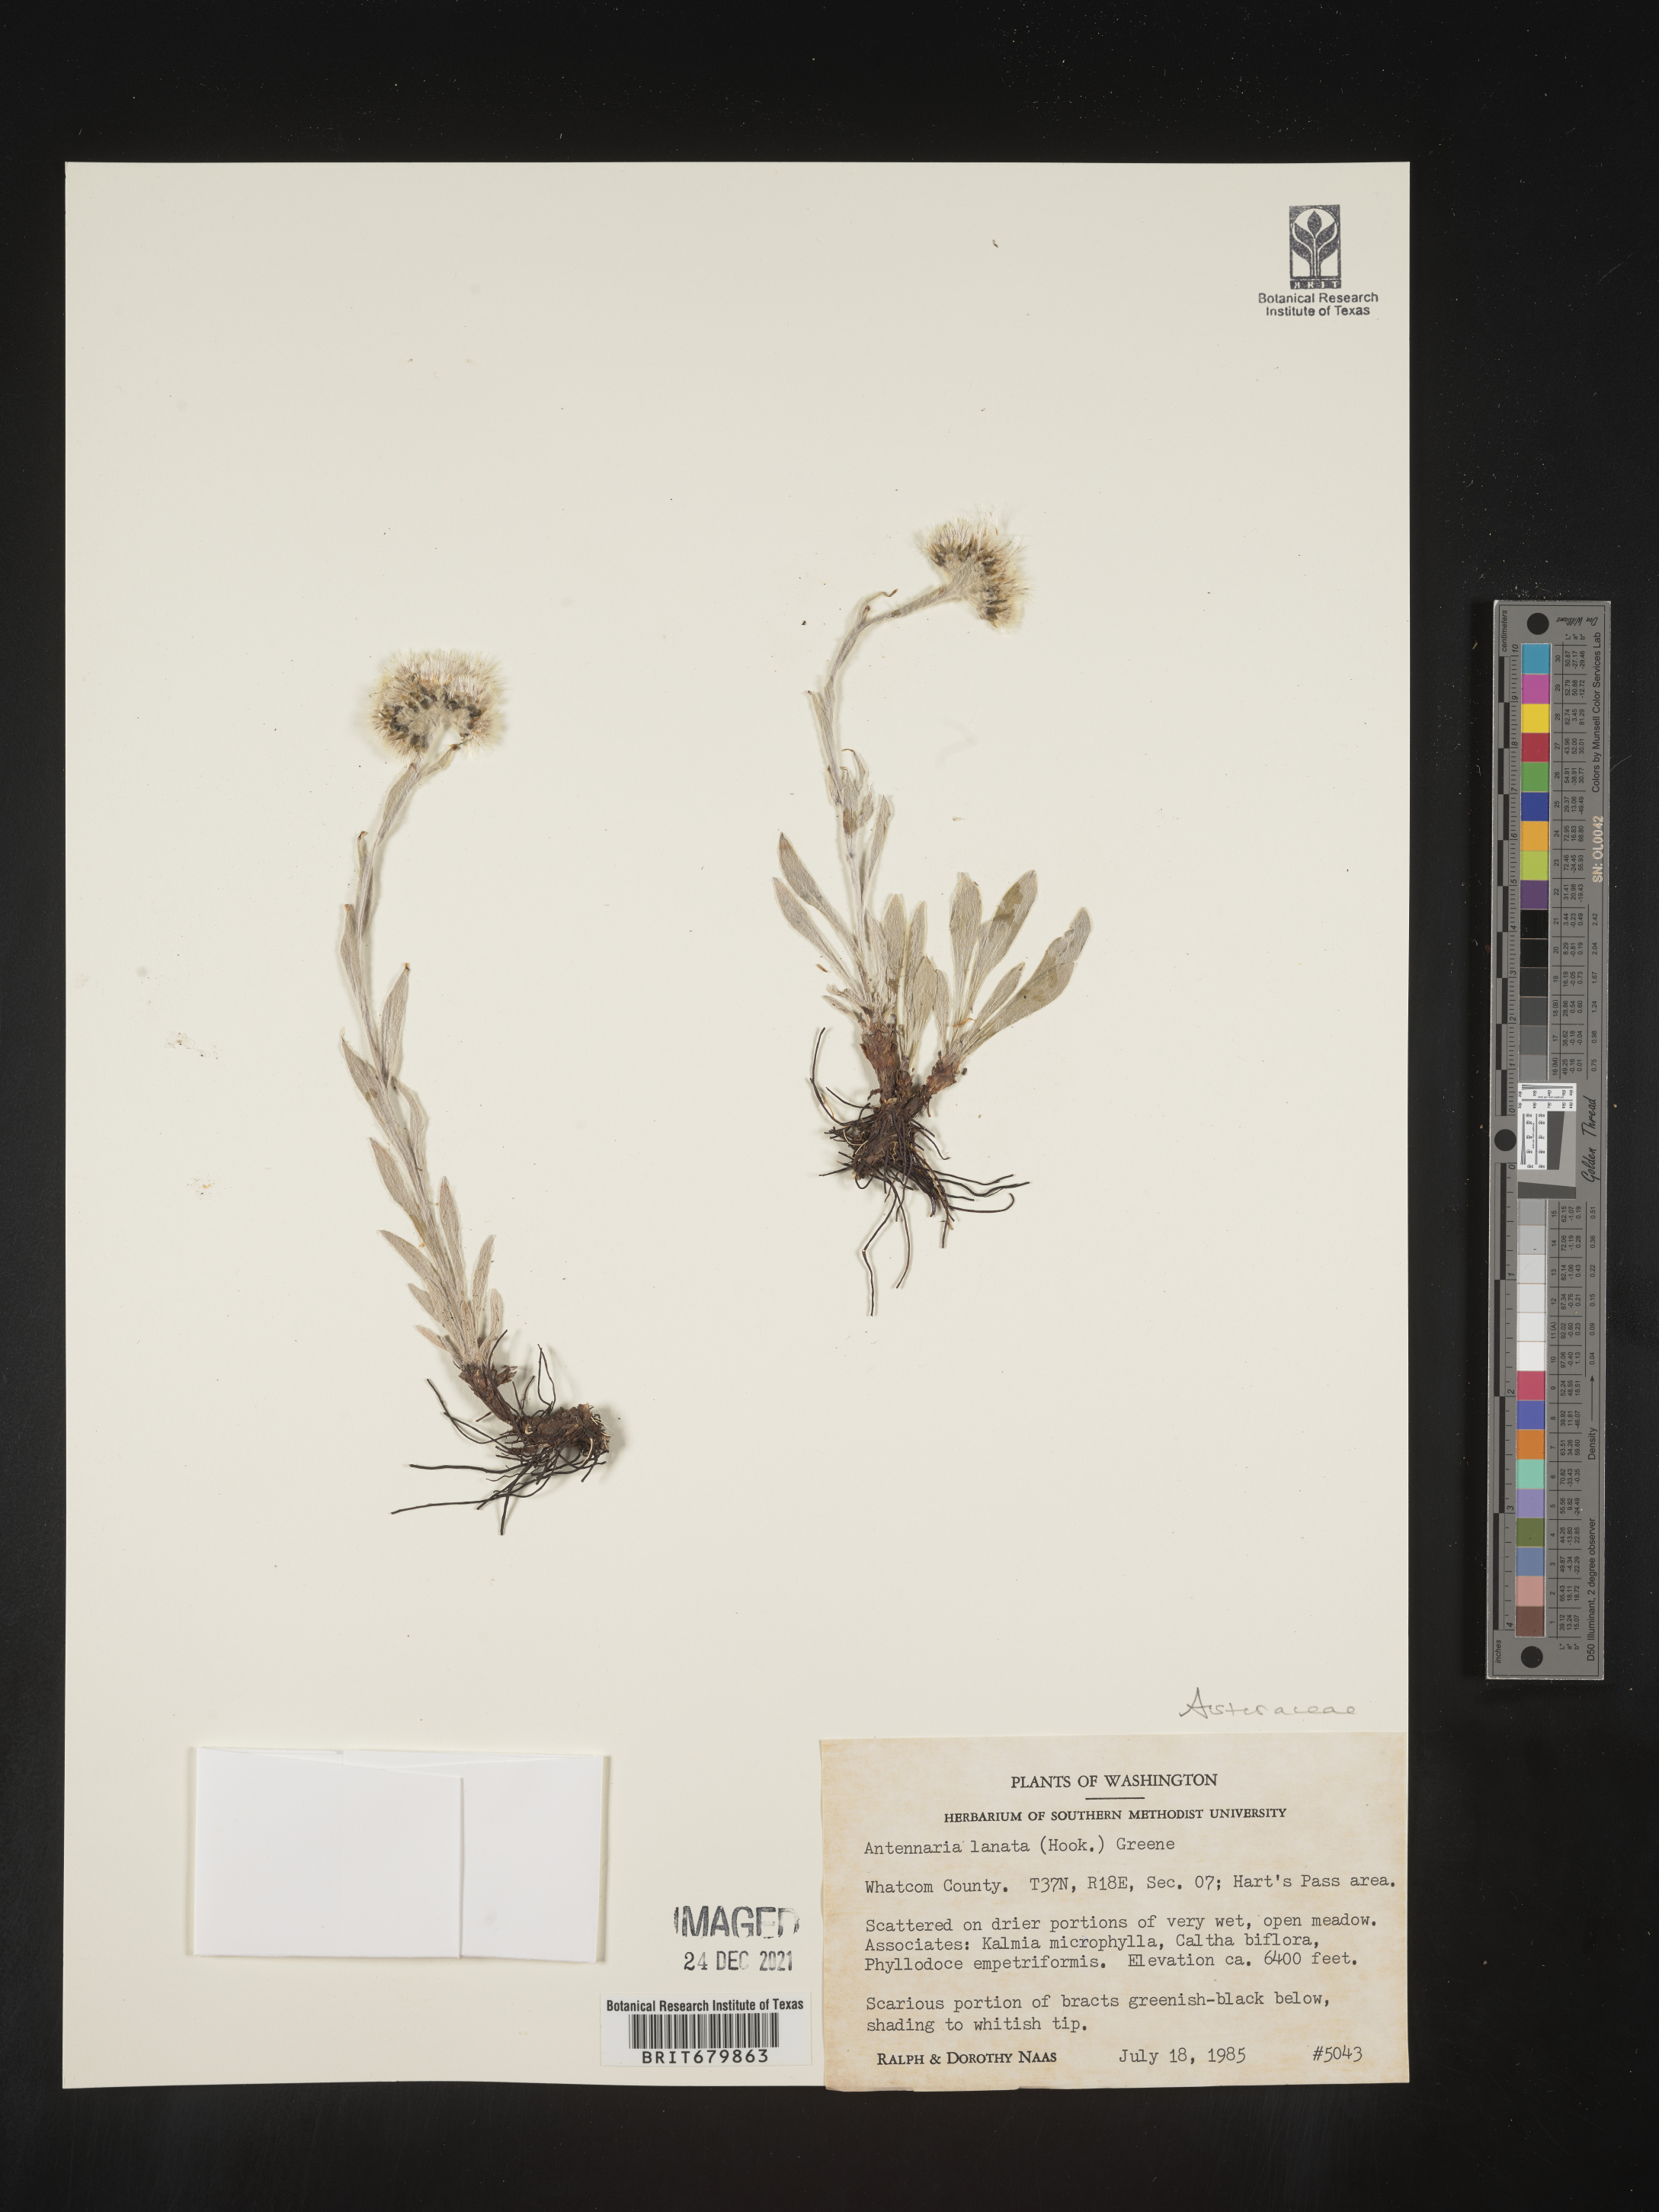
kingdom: Plantae
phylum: Tracheophyta
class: Magnoliopsida
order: Asterales
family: Asteraceae
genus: Antennaria
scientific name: Antennaria lanata
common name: Woolly pussytoes
